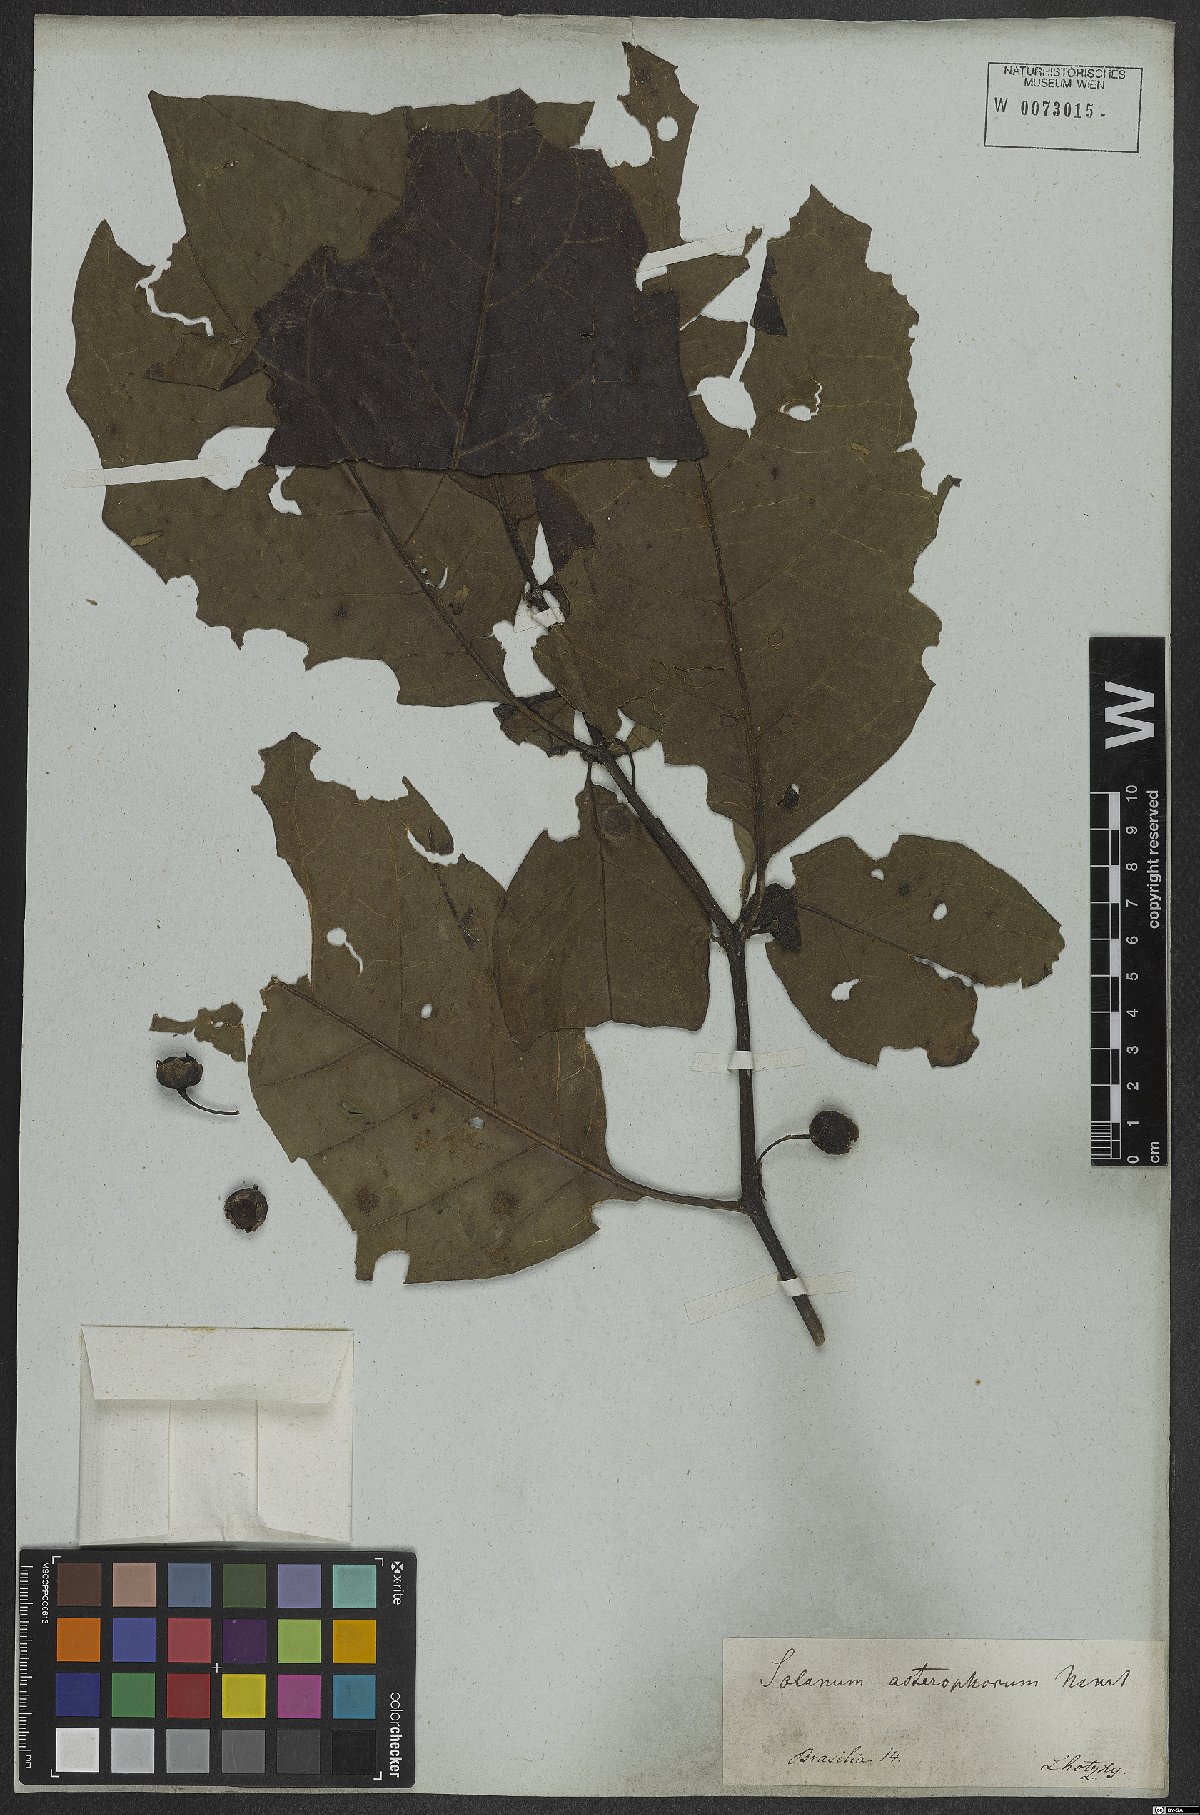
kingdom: Plantae
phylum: Tracheophyta
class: Magnoliopsida
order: Solanales
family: Solanaceae
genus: Solanum
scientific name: Solanum asterophorum
